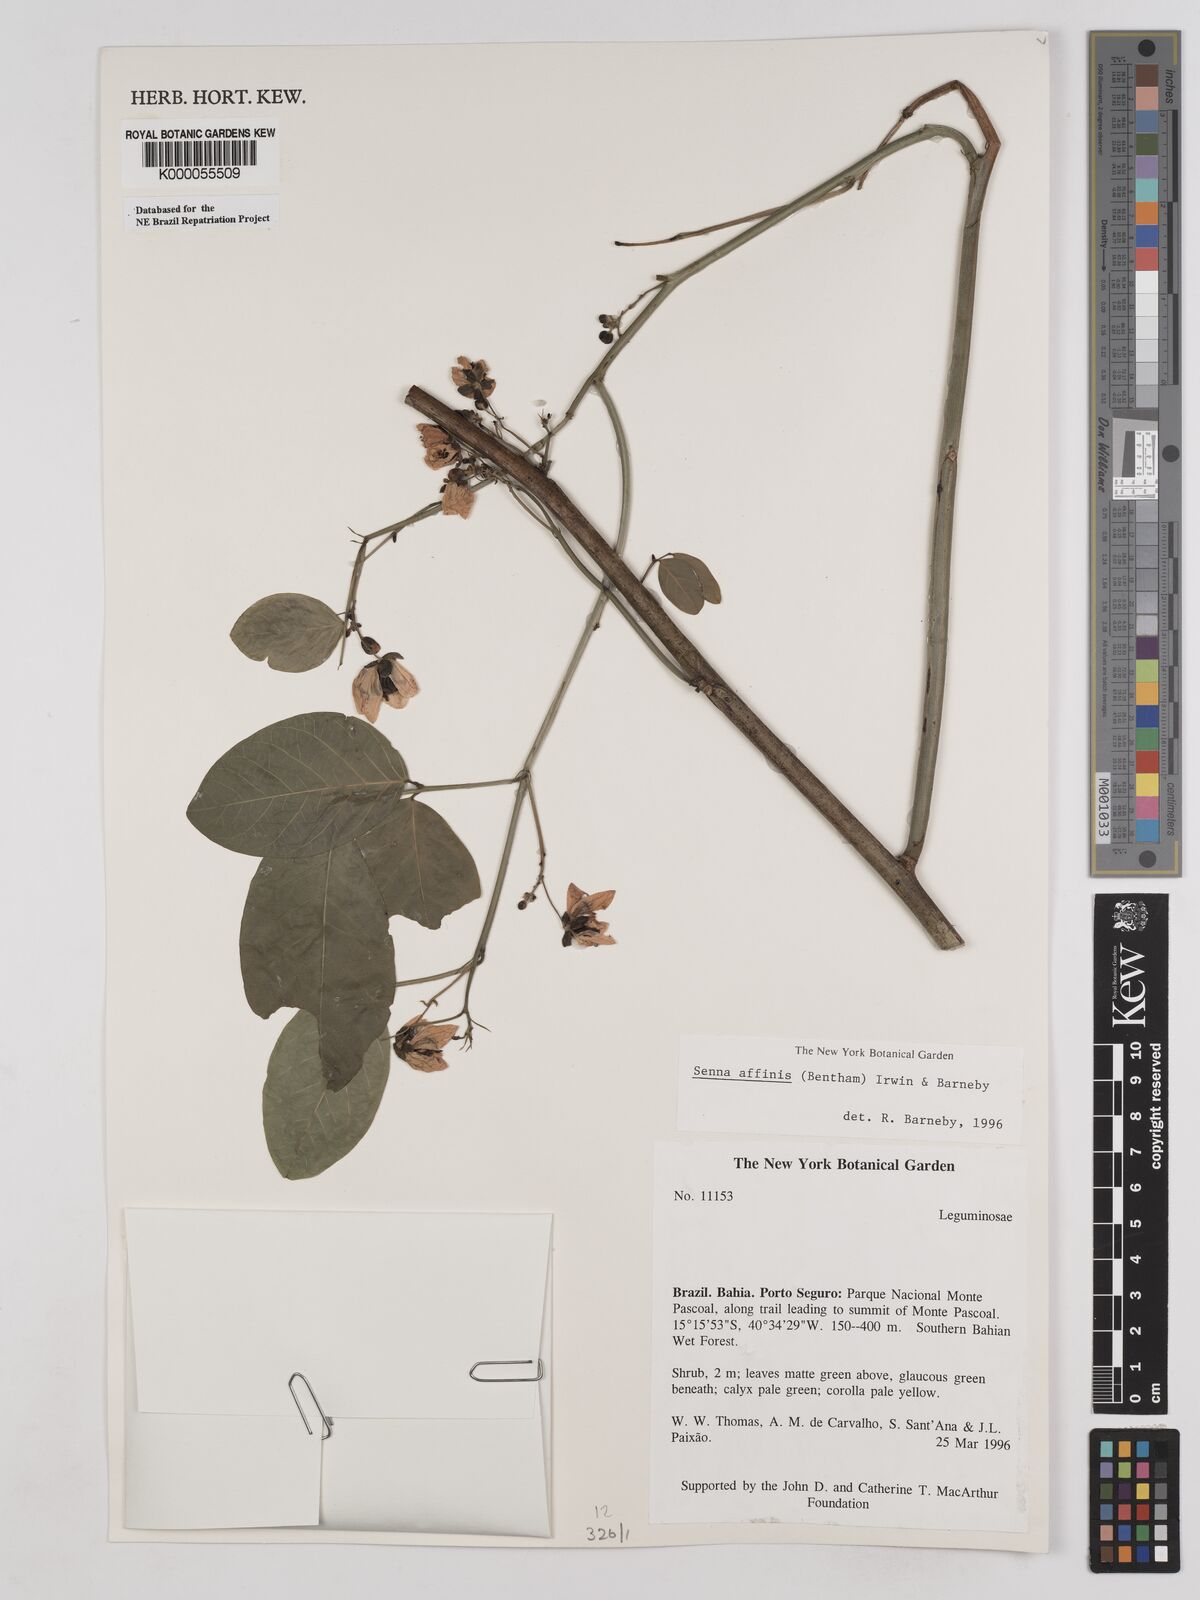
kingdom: Plantae
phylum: Tracheophyta
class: Magnoliopsida
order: Fabales
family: Fabaceae
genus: Senna
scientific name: Senna affinis
